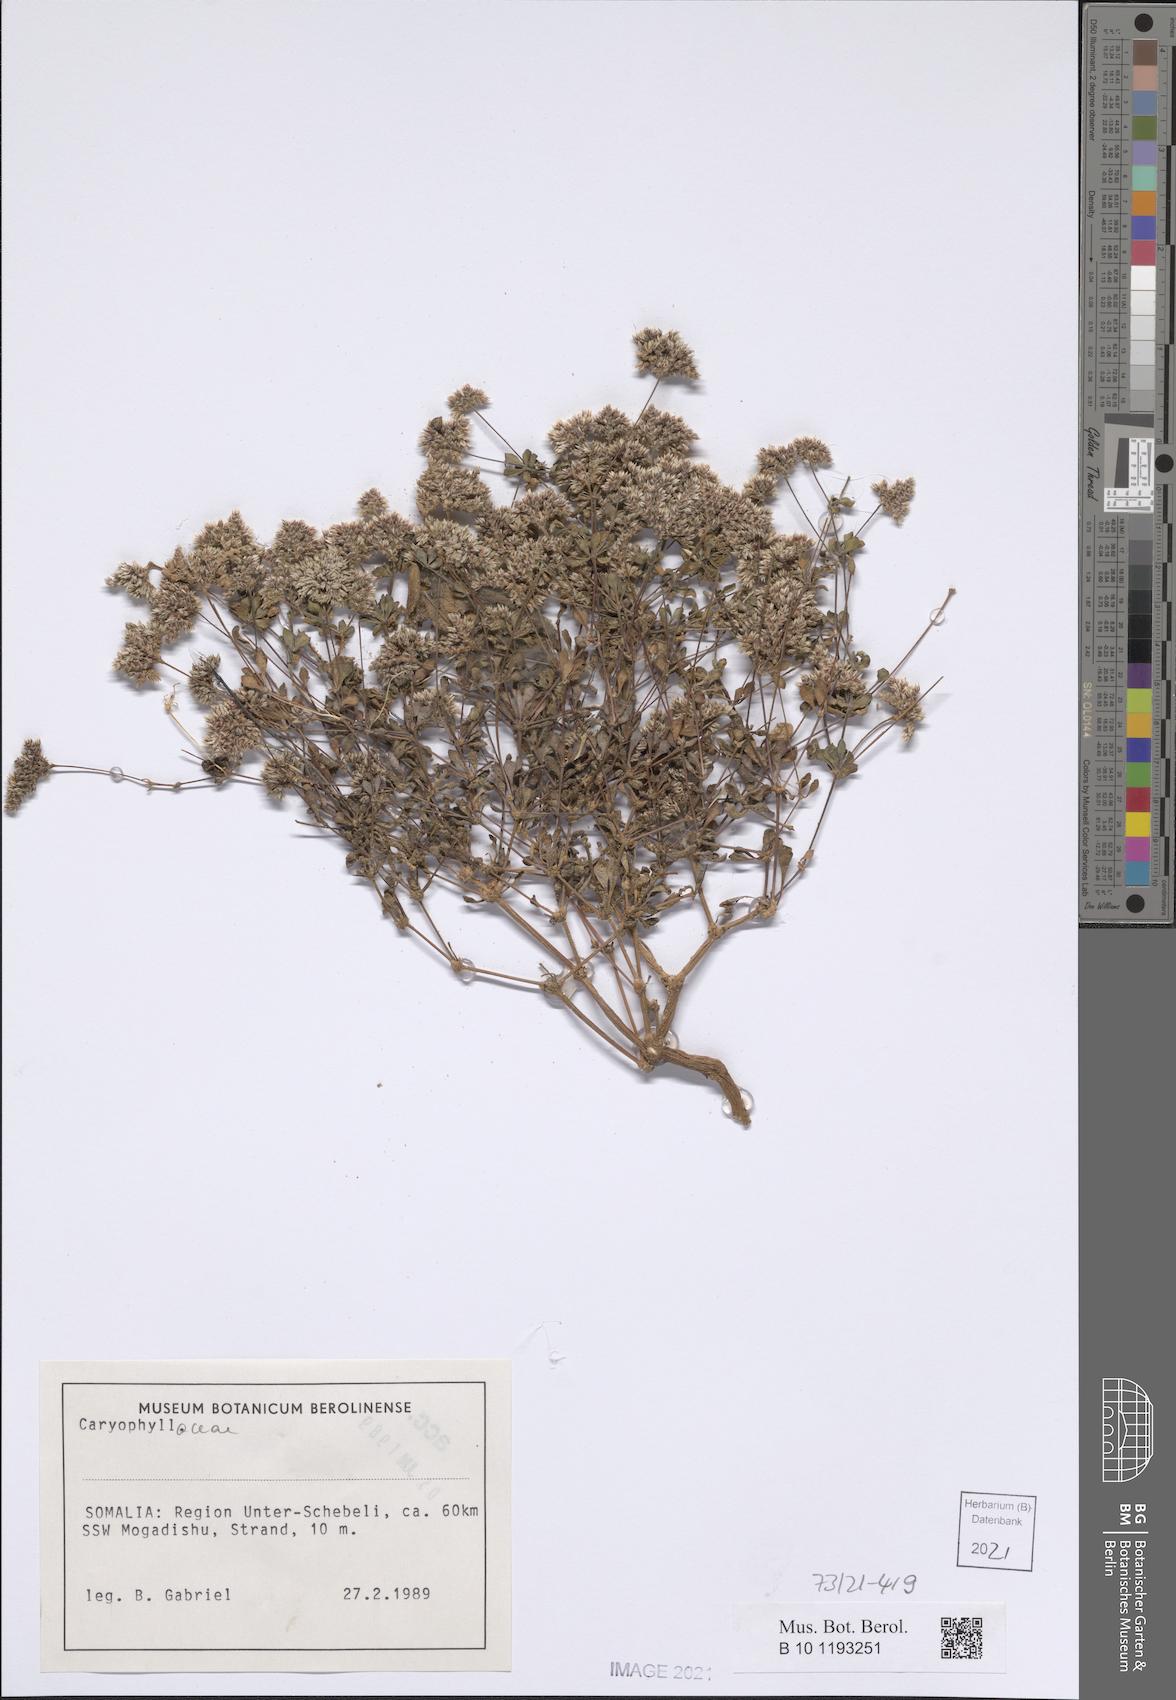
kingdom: Plantae
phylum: Tracheophyta
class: Magnoliopsida
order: Caryophyllales
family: Caryophyllaceae
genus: Polycarpaea
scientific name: Polycarpaea somalensis
